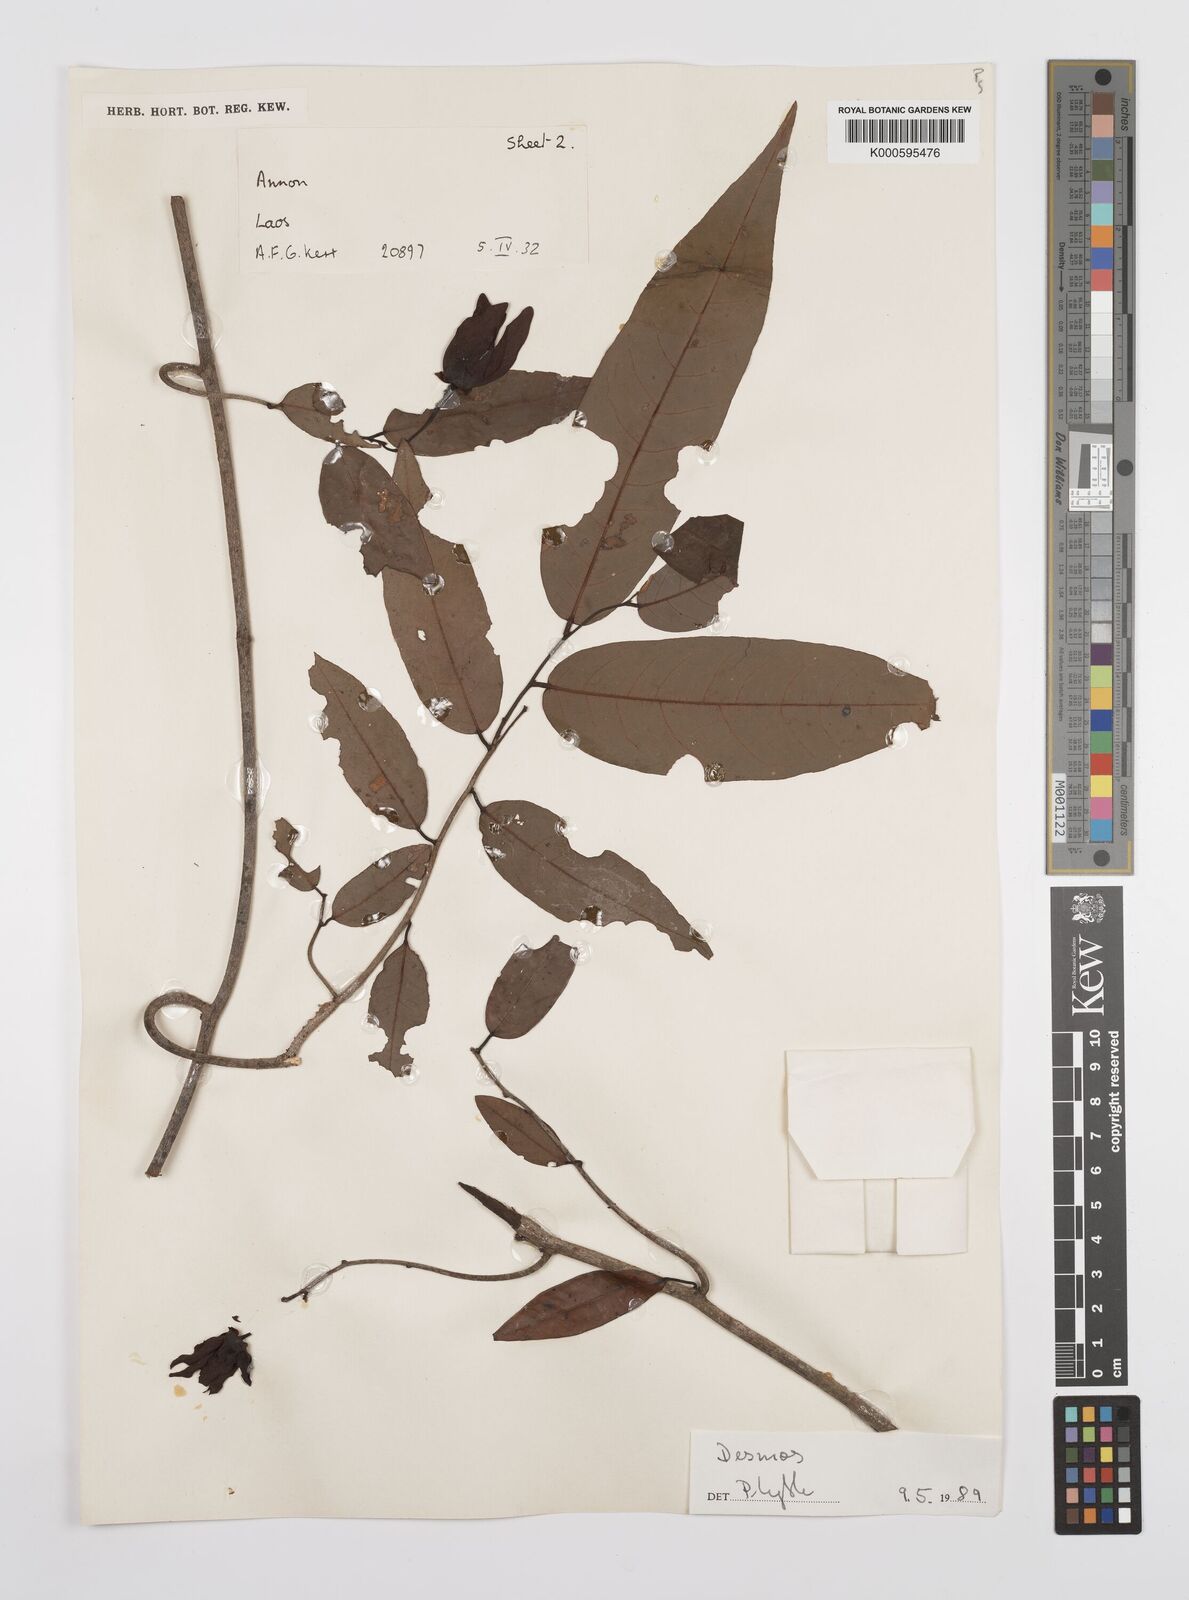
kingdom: Plantae
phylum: Tracheophyta
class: Magnoliopsida
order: Magnoliales
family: Annonaceae
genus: Desmos
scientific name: Desmos
